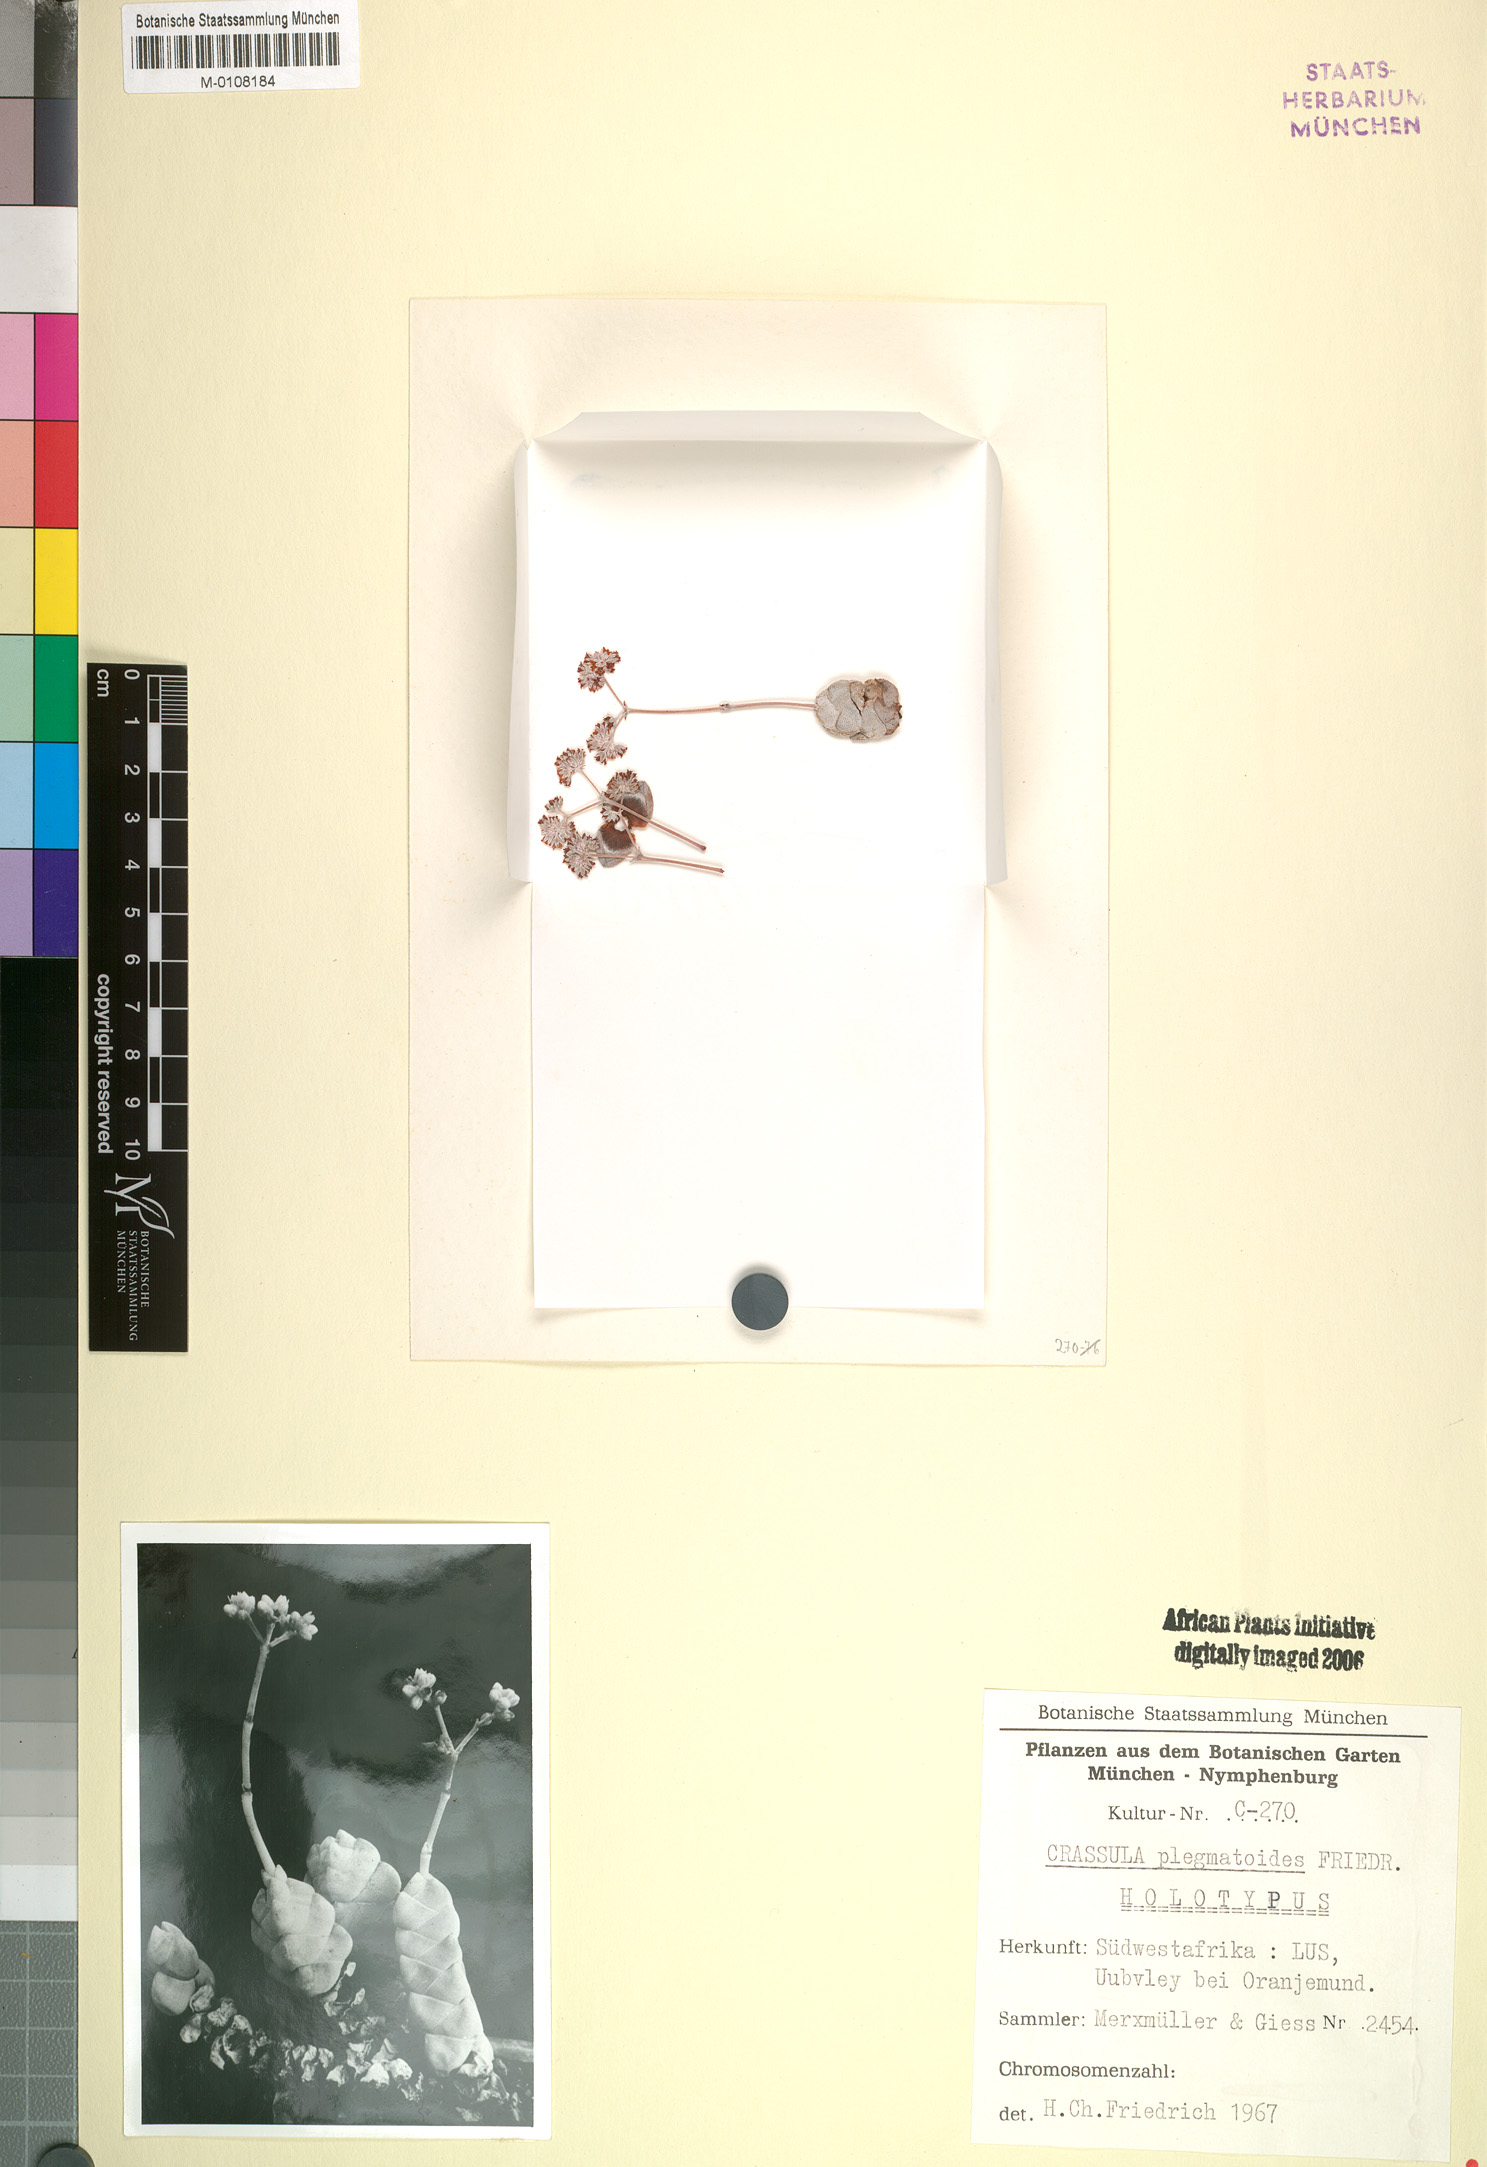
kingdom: Plantae
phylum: Tracheophyta
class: Magnoliopsida
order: Saxifragales
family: Crassulaceae
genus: Crassula
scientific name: Crassula plegmatoides
